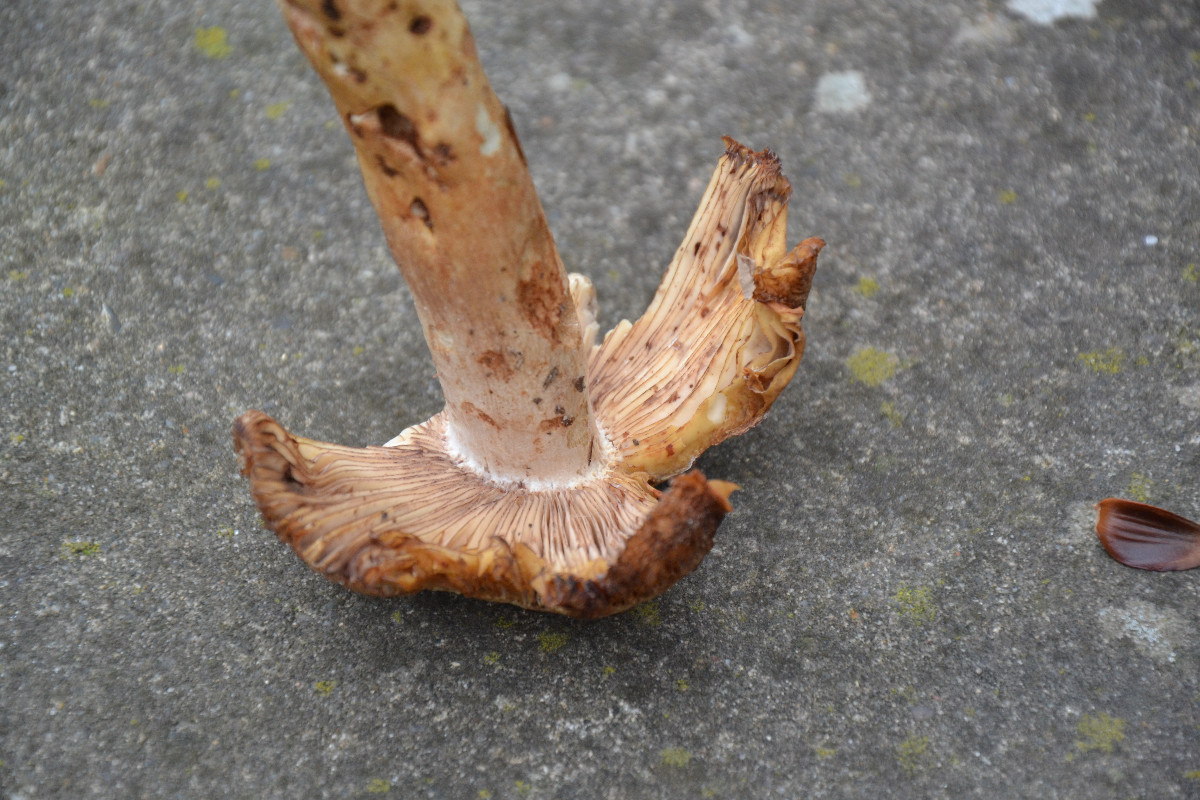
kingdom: Fungi
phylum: Basidiomycota
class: Agaricomycetes
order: Russulales
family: Russulaceae
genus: Russula
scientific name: Russula illota
